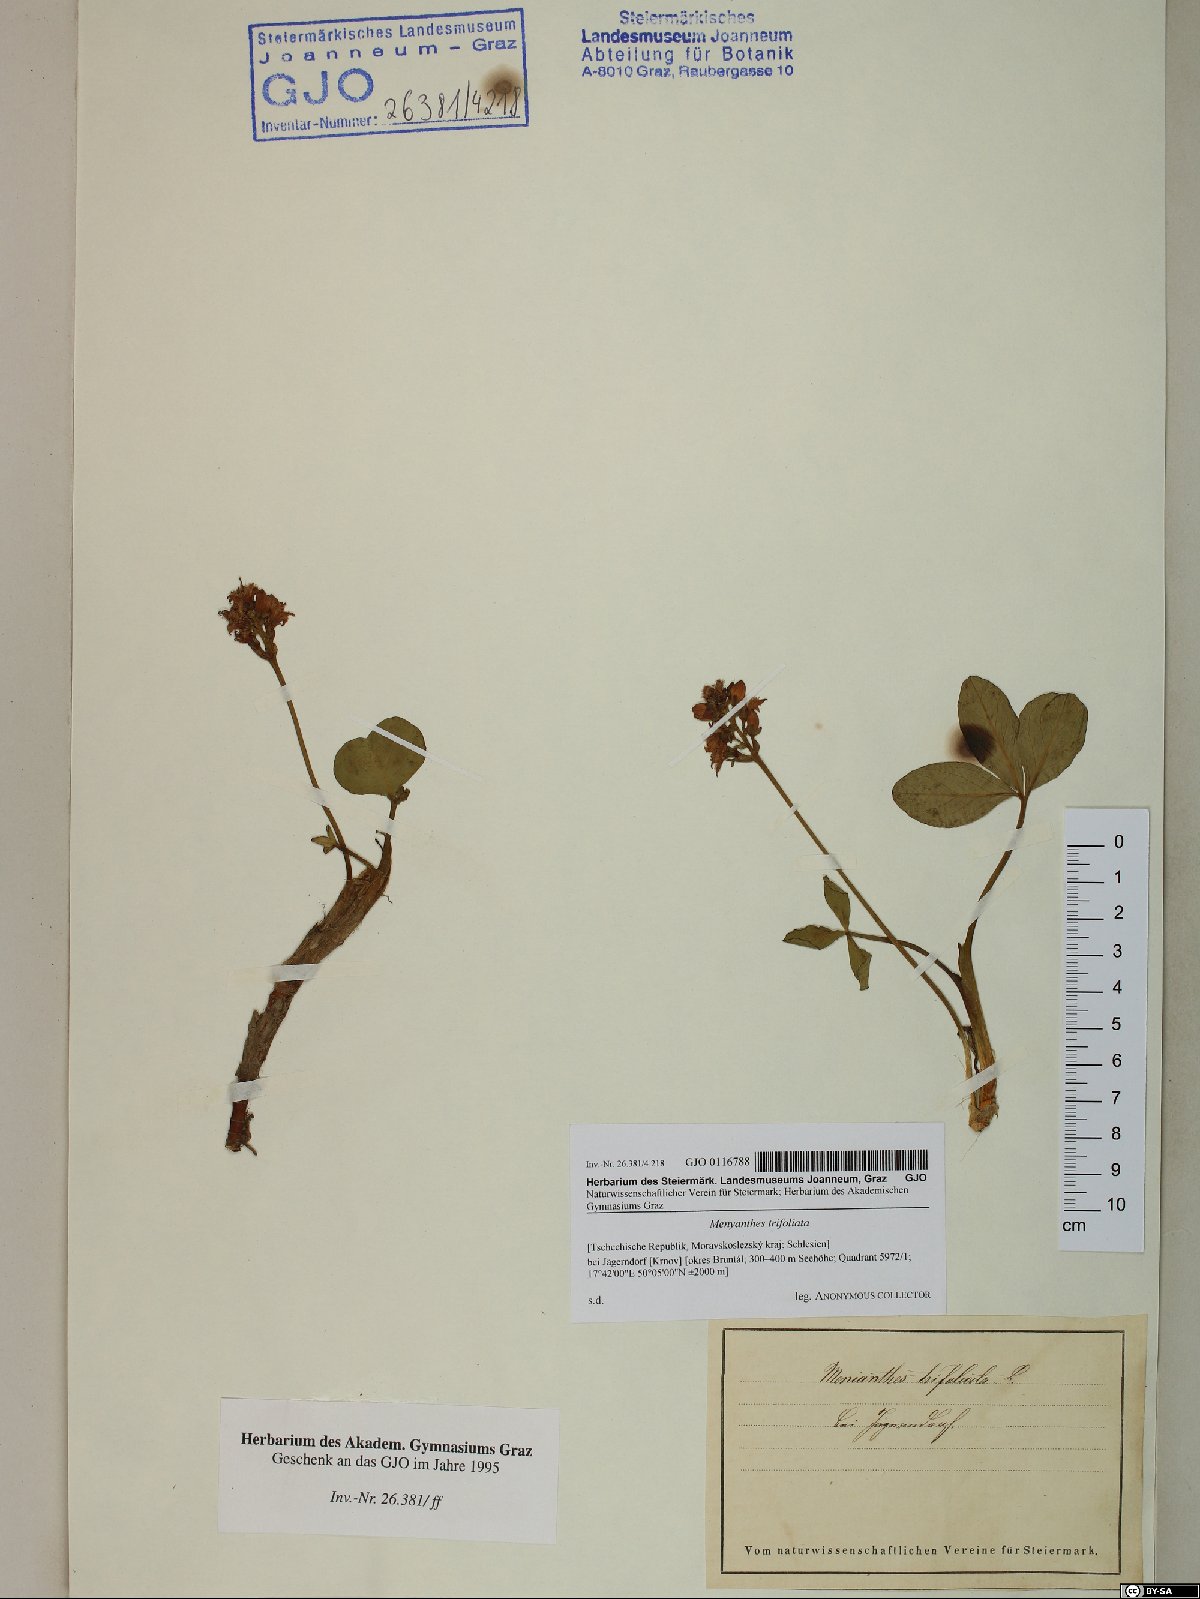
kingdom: Plantae
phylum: Tracheophyta
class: Magnoliopsida
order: Asterales
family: Menyanthaceae
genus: Menyanthes
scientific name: Menyanthes trifoliata
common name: Bogbean
